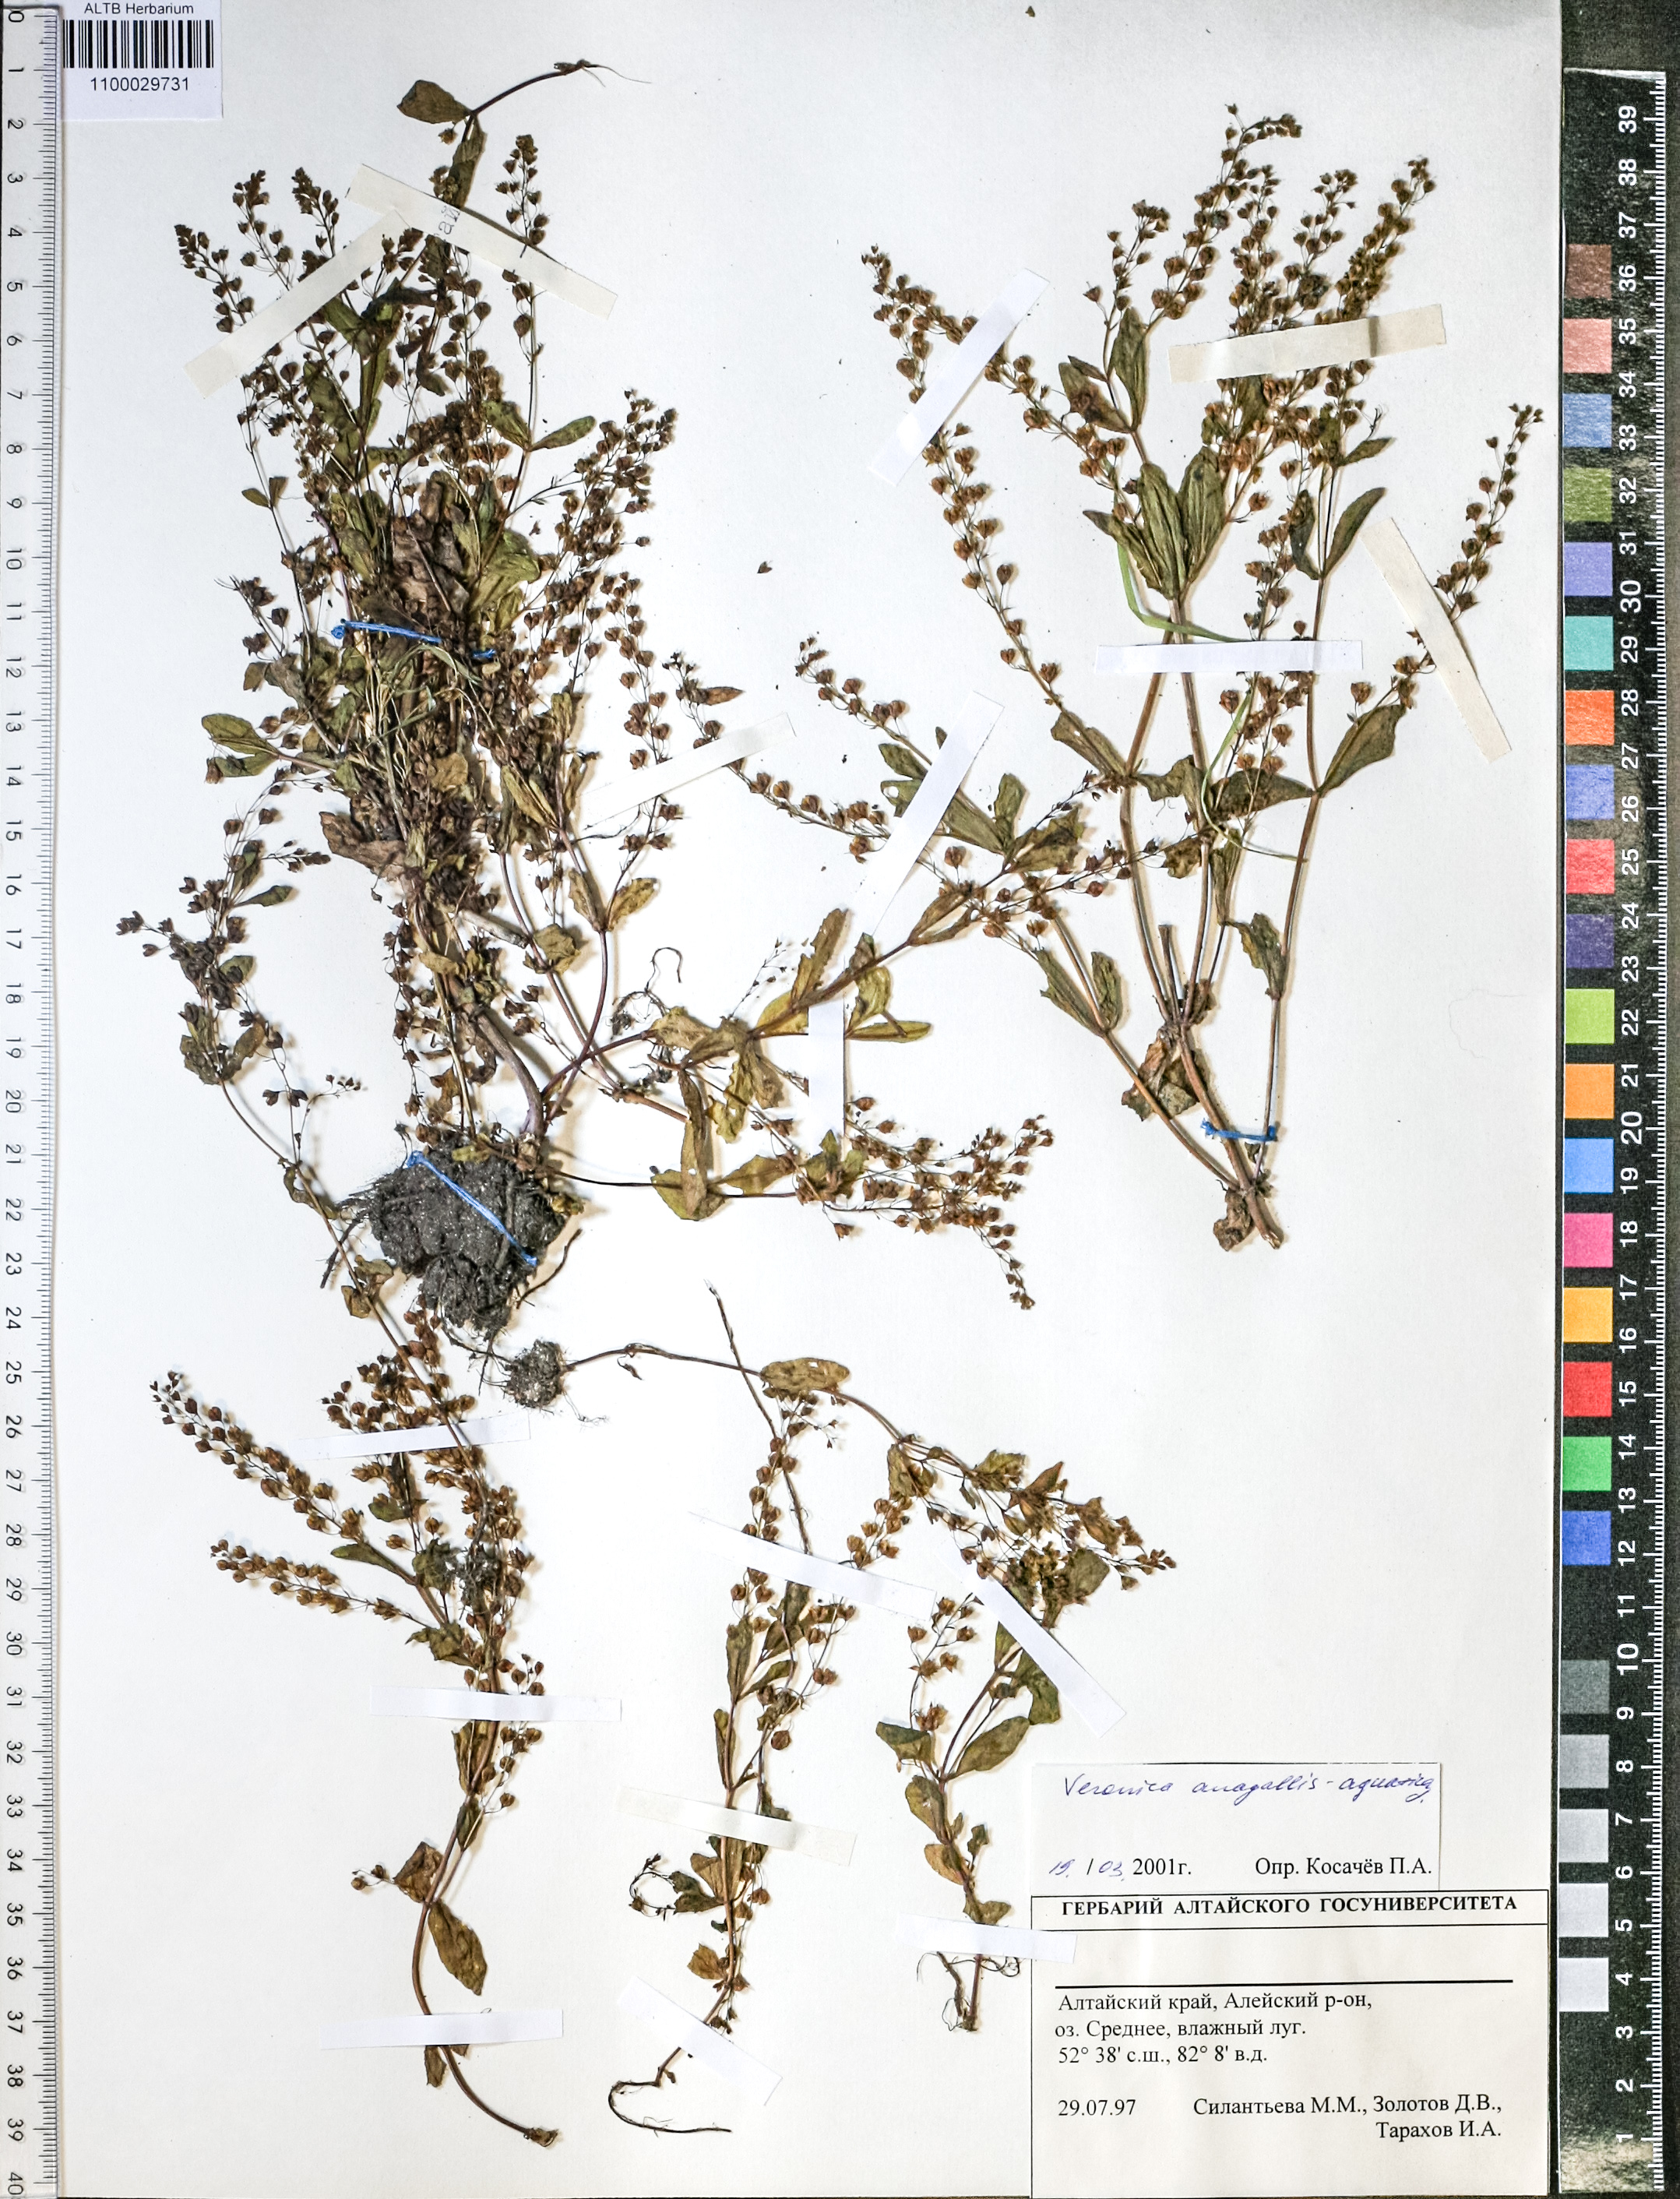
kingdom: Plantae
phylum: Tracheophyta
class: Magnoliopsida
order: Lamiales
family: Plantaginaceae
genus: Veronica
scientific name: Veronica anagallis-aquatica
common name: Water speedwell
